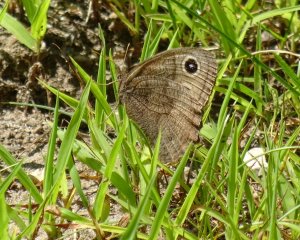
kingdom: Animalia
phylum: Arthropoda
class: Insecta
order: Lepidoptera
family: Nymphalidae
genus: Cercyonis
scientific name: Cercyonis pegala
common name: Common Wood-Nymph
